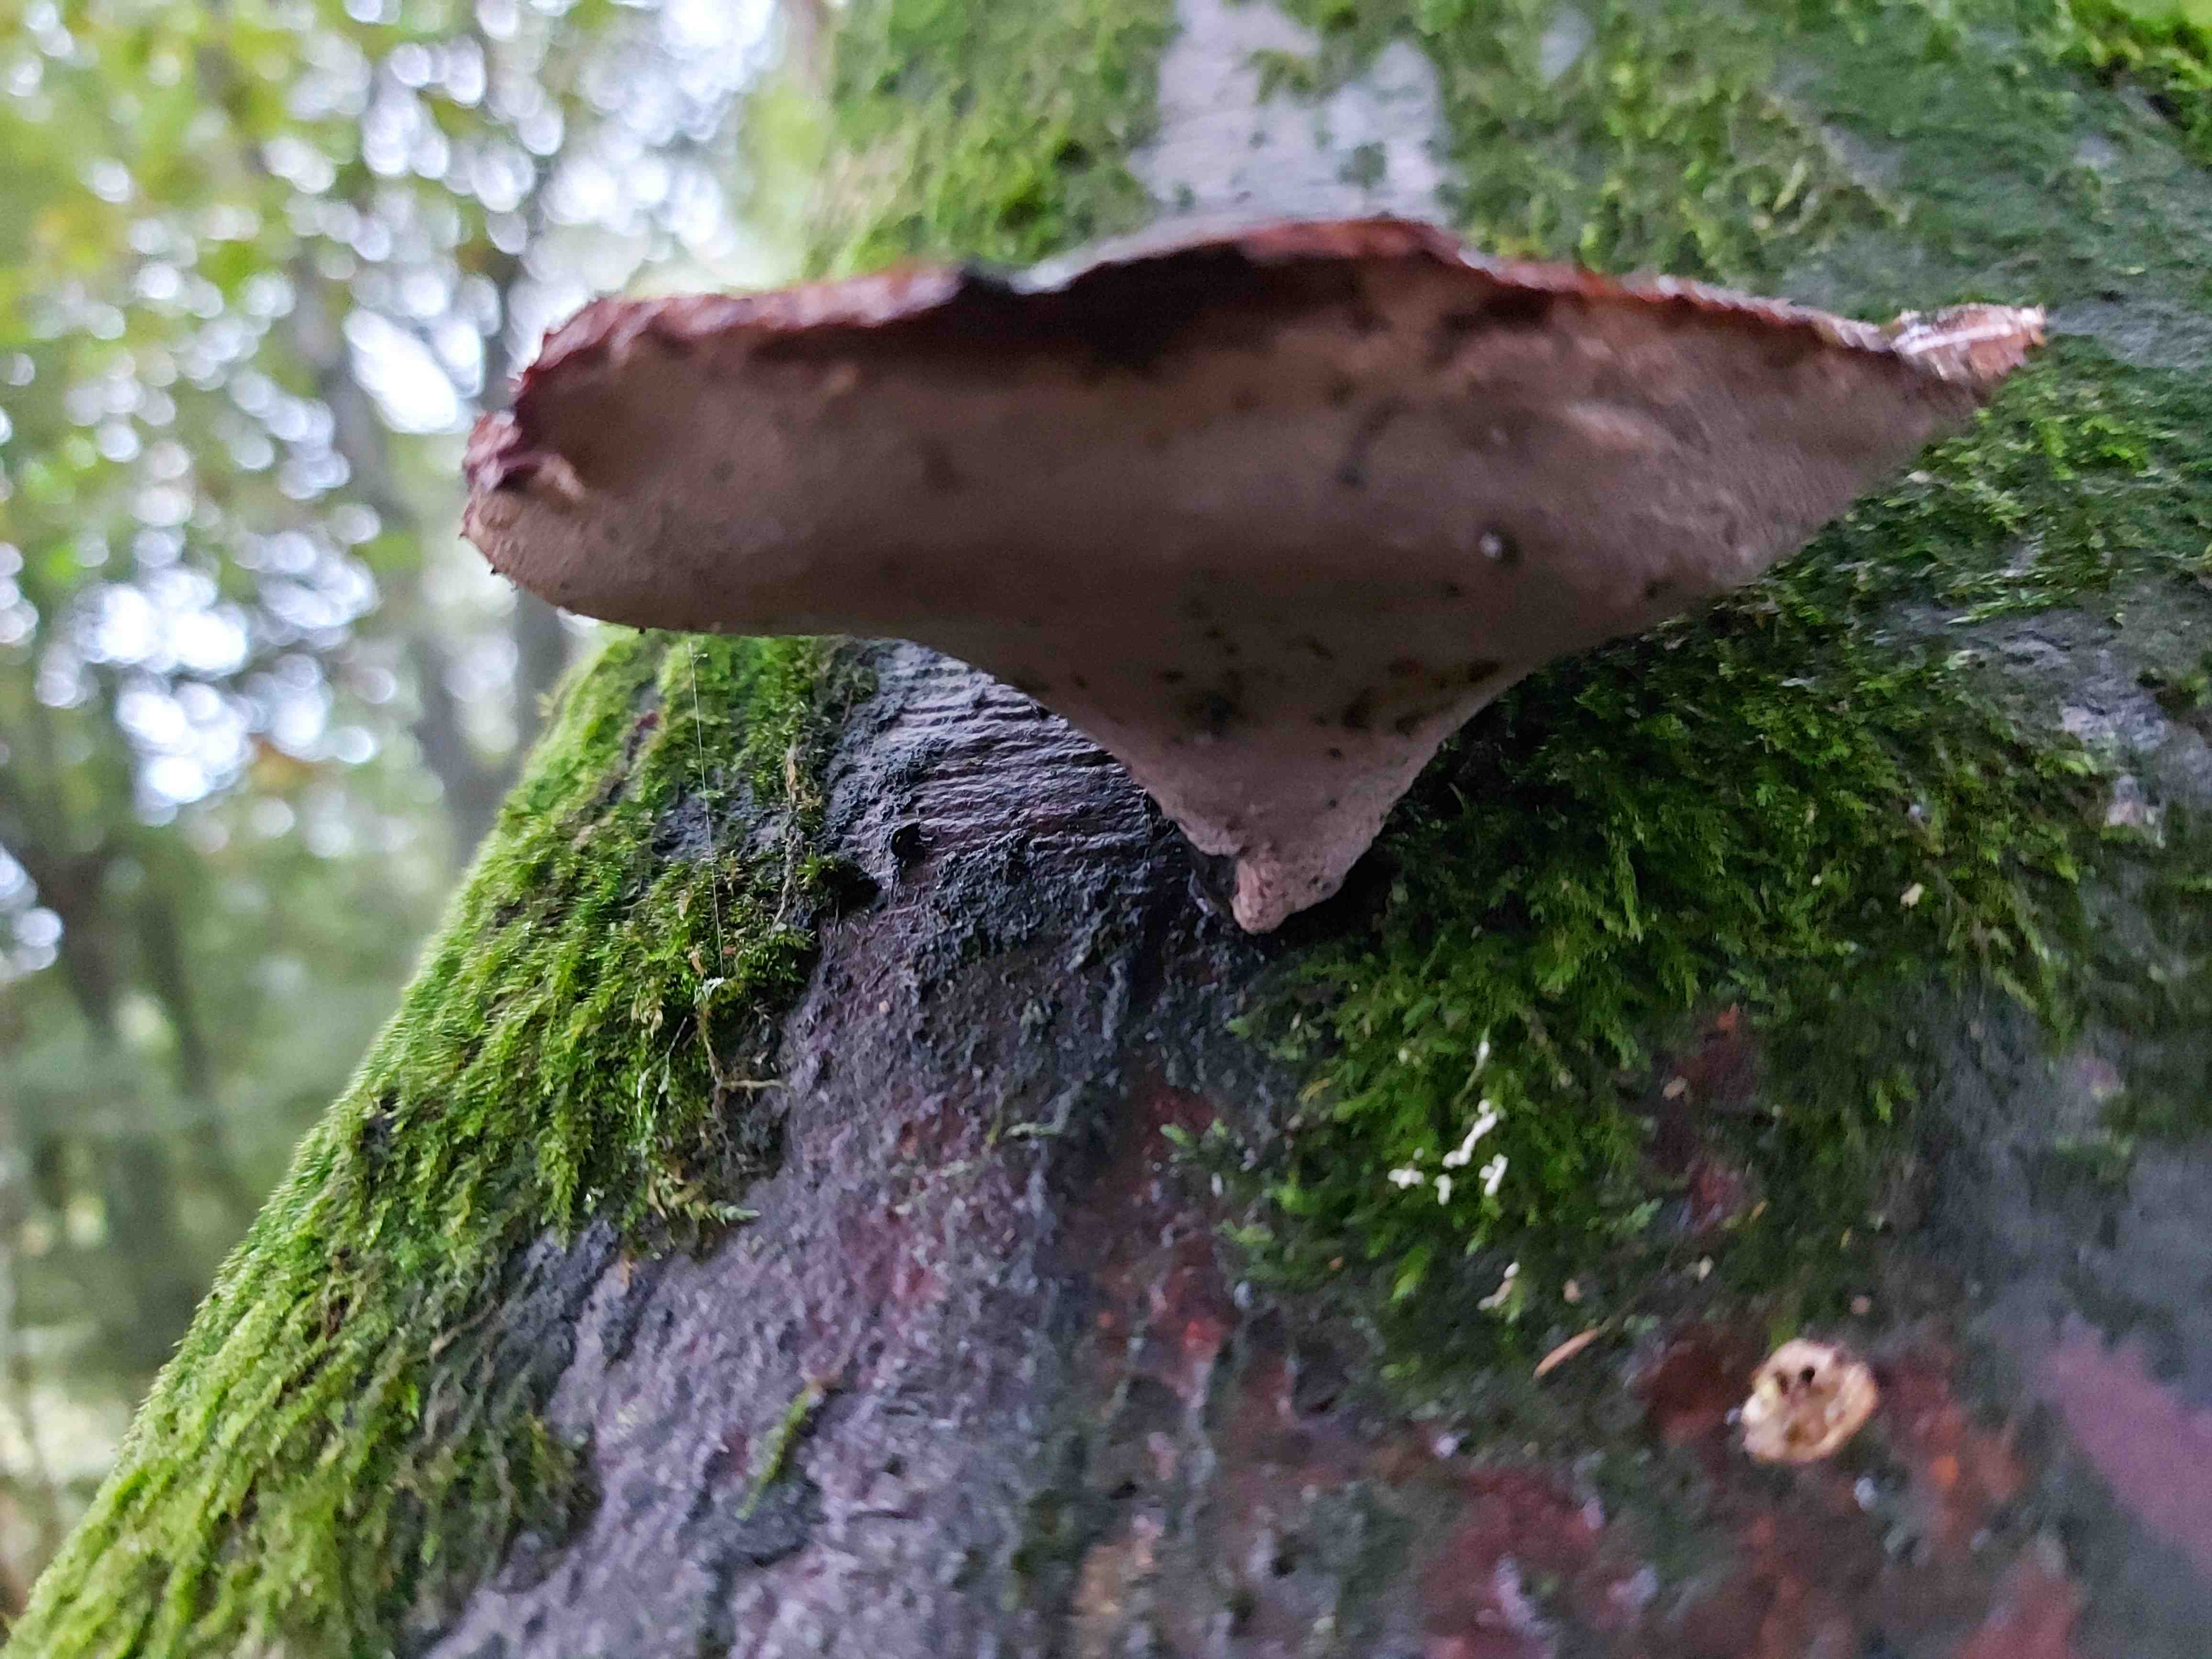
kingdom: Fungi
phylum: Basidiomycota
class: Agaricomycetes
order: Polyporales
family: Polyporaceae
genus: Cerioporus
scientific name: Cerioporus varius
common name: foranderlig stilkporesvamp
